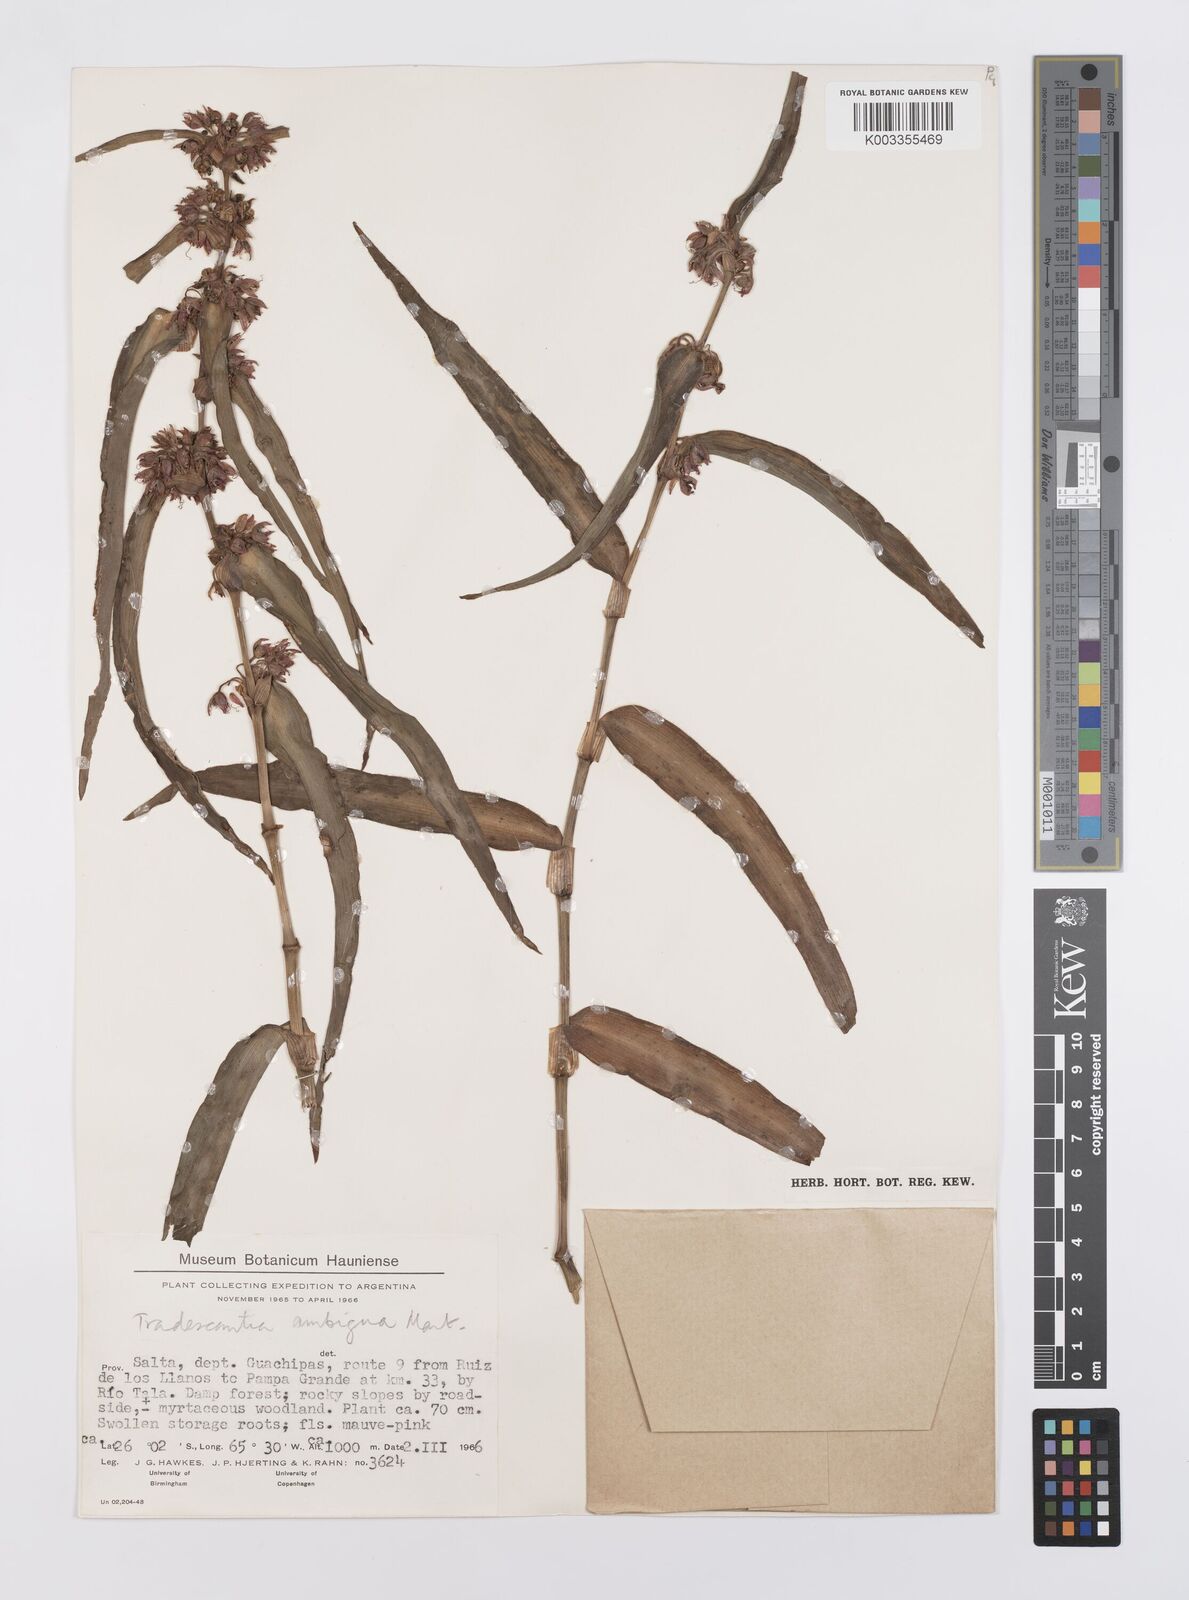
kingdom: Plantae
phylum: Tracheophyta
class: Liliopsida
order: Commelinales
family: Commelinaceae
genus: Tradescantia
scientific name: Tradescantia boliviana
